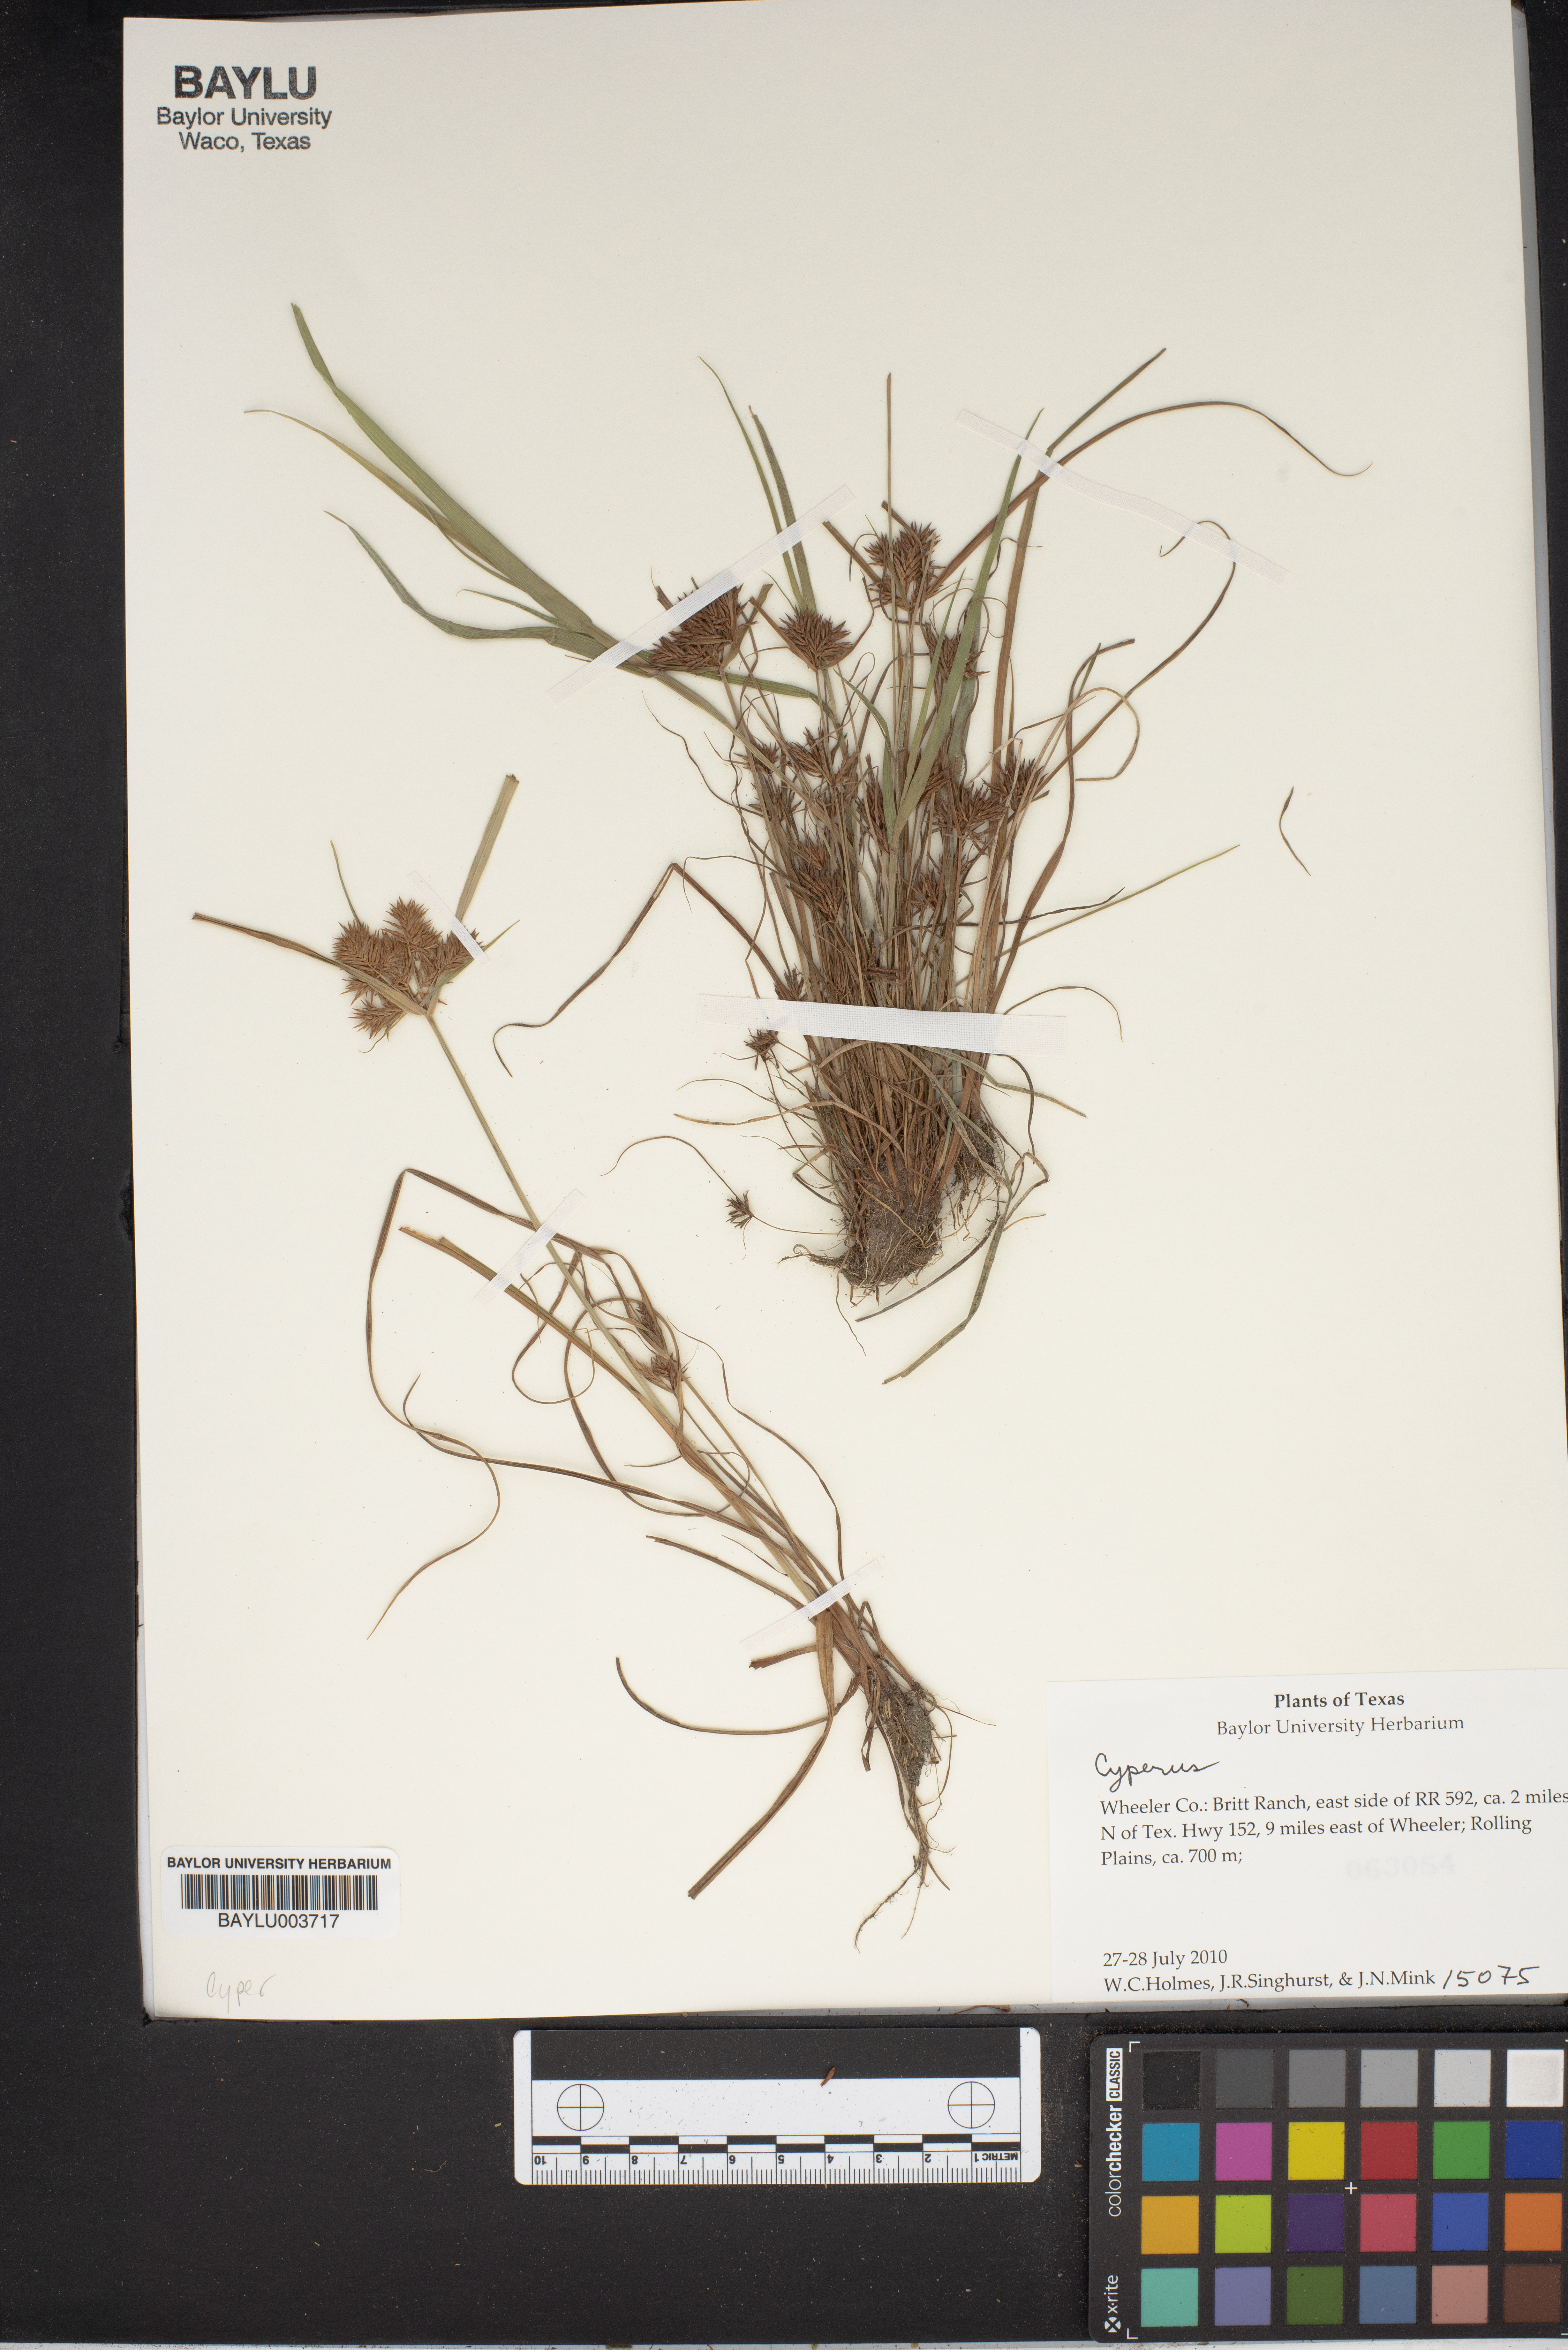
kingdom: Plantae
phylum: Tracheophyta
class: Liliopsida
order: Poales
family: Cyperaceae
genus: Cyperus
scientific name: Cyperus
